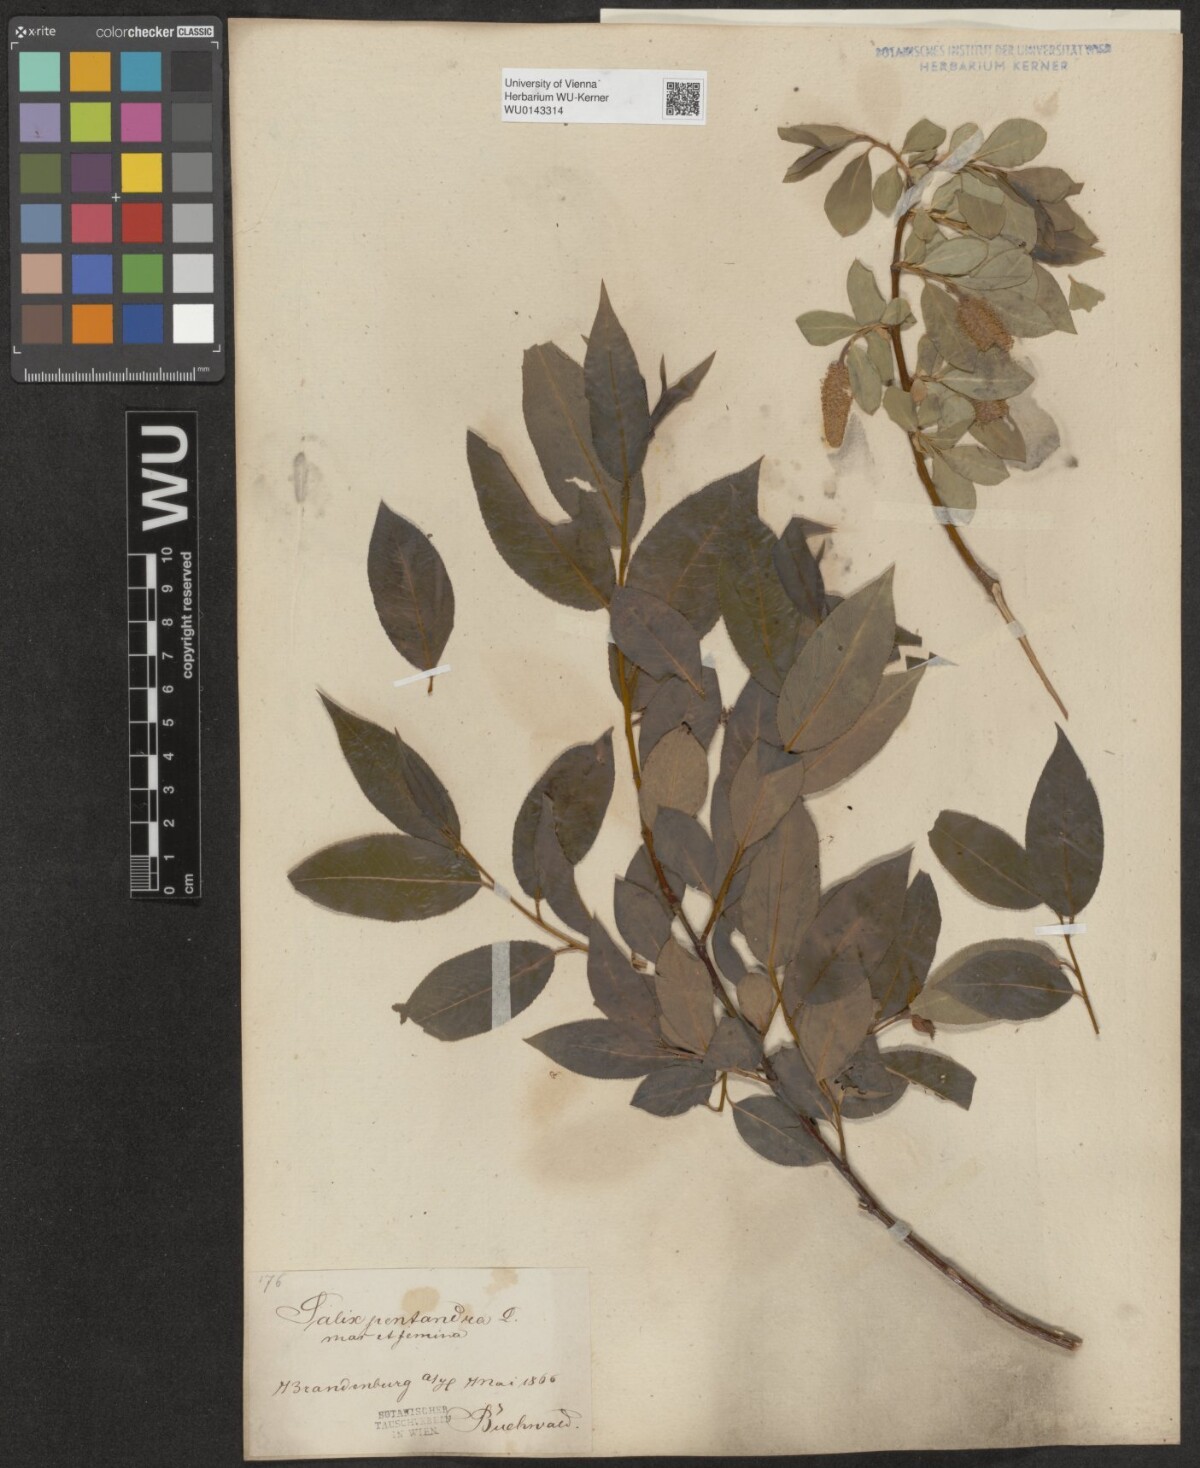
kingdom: Plantae
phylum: Tracheophyta
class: Magnoliopsida
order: Malpighiales
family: Salicaceae
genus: Salix
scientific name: Salix pentandra
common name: Bay willow
